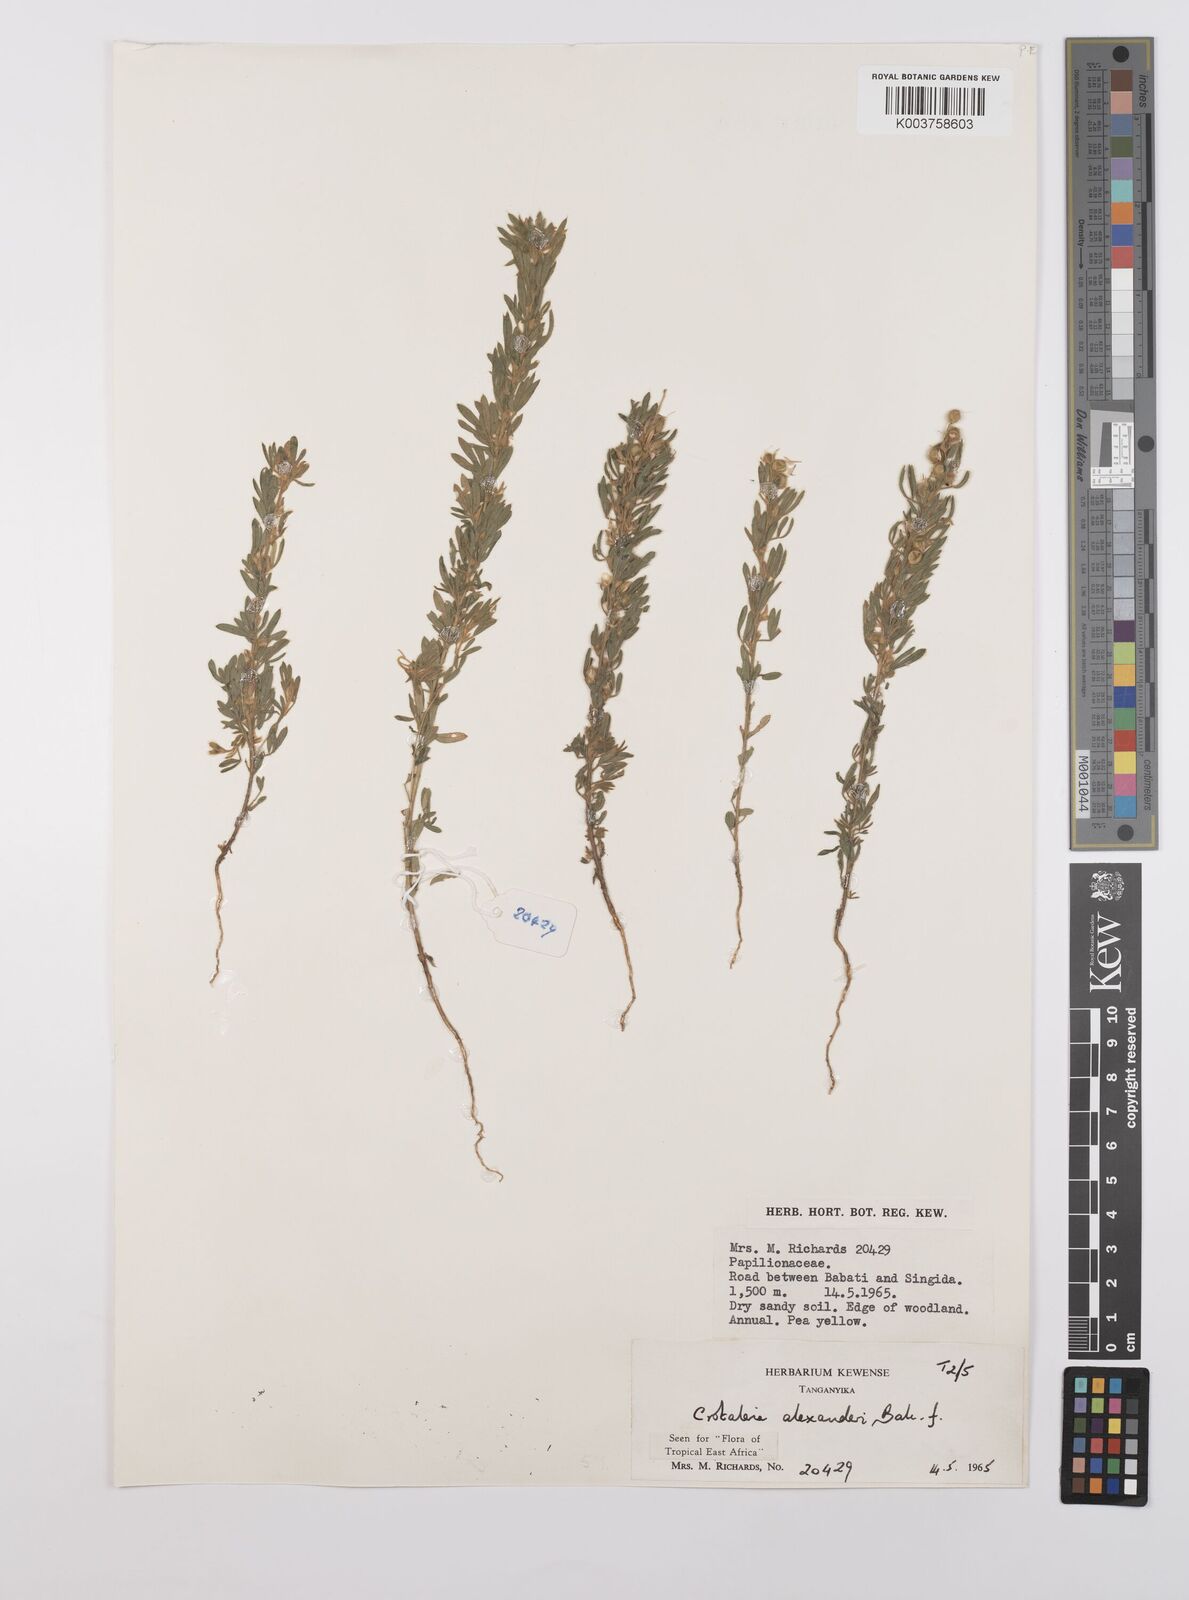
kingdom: Plantae
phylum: Tracheophyta
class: Magnoliopsida
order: Fabales
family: Fabaceae
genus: Crotalaria
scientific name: Crotalaria alexandri
